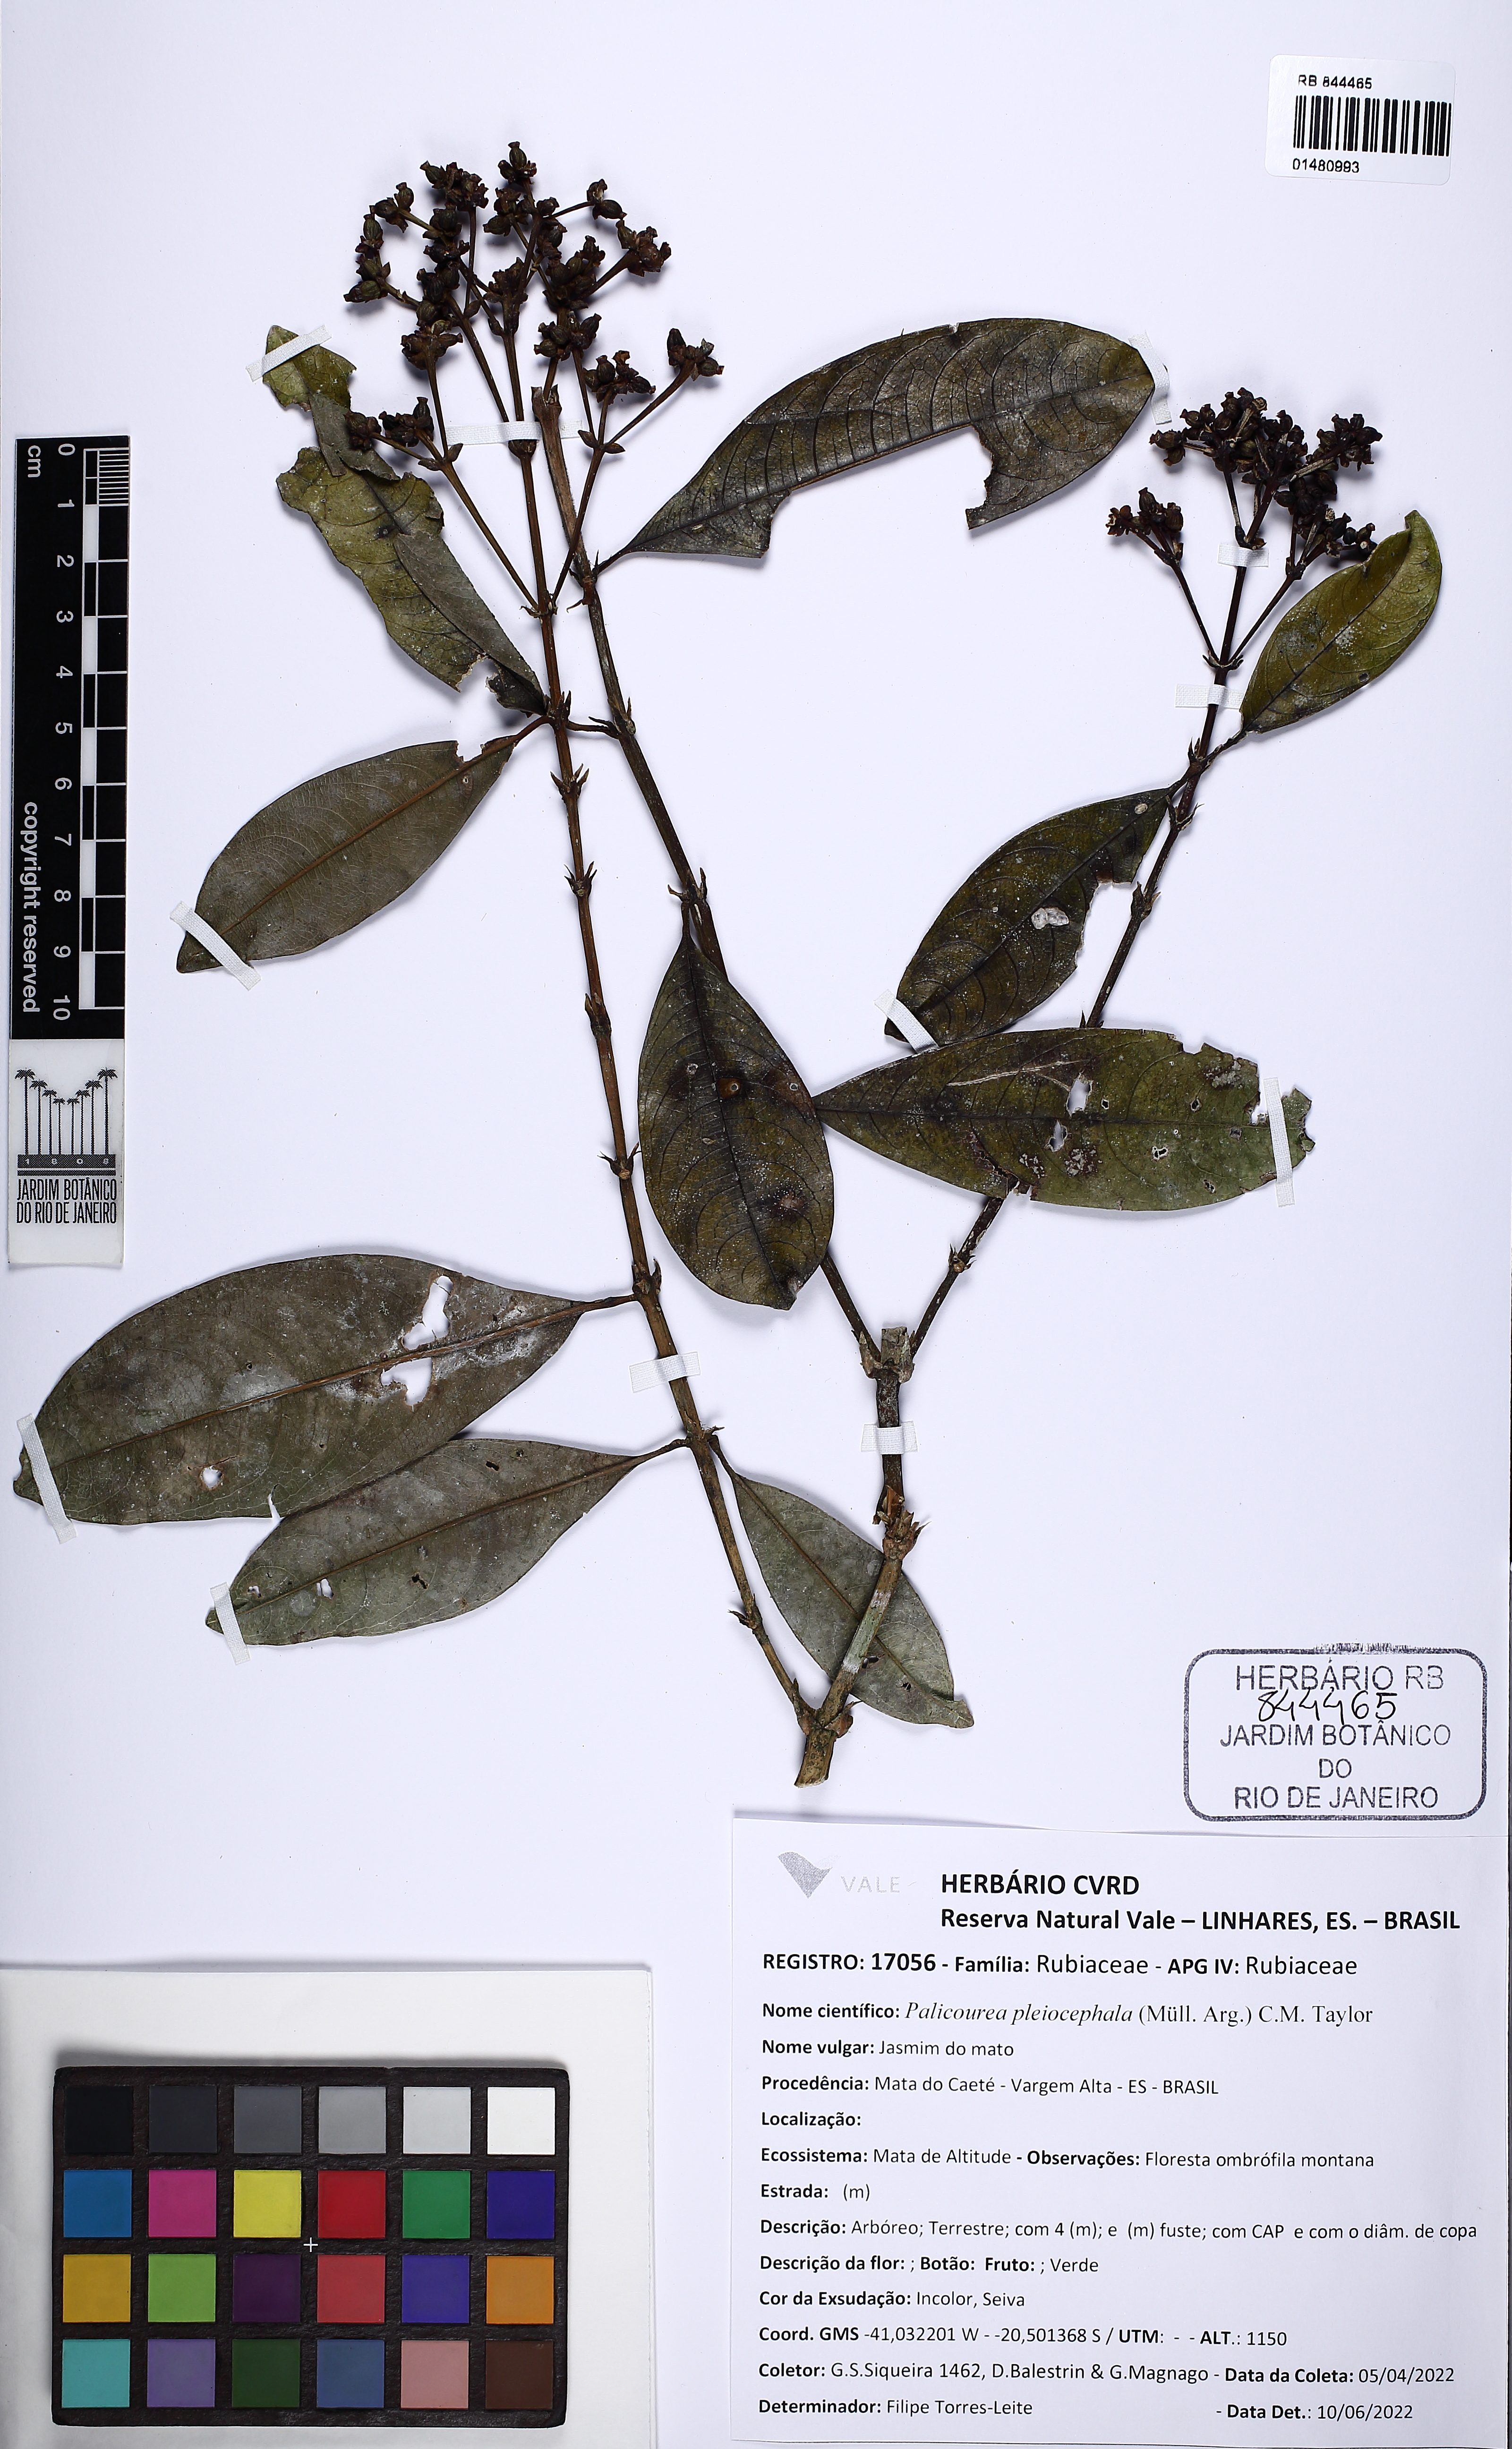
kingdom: Plantae
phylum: Tracheophyta
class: Magnoliopsida
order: Gentianales
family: Rubiaceae
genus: Palicourea
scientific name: Palicourea pleiocephala
